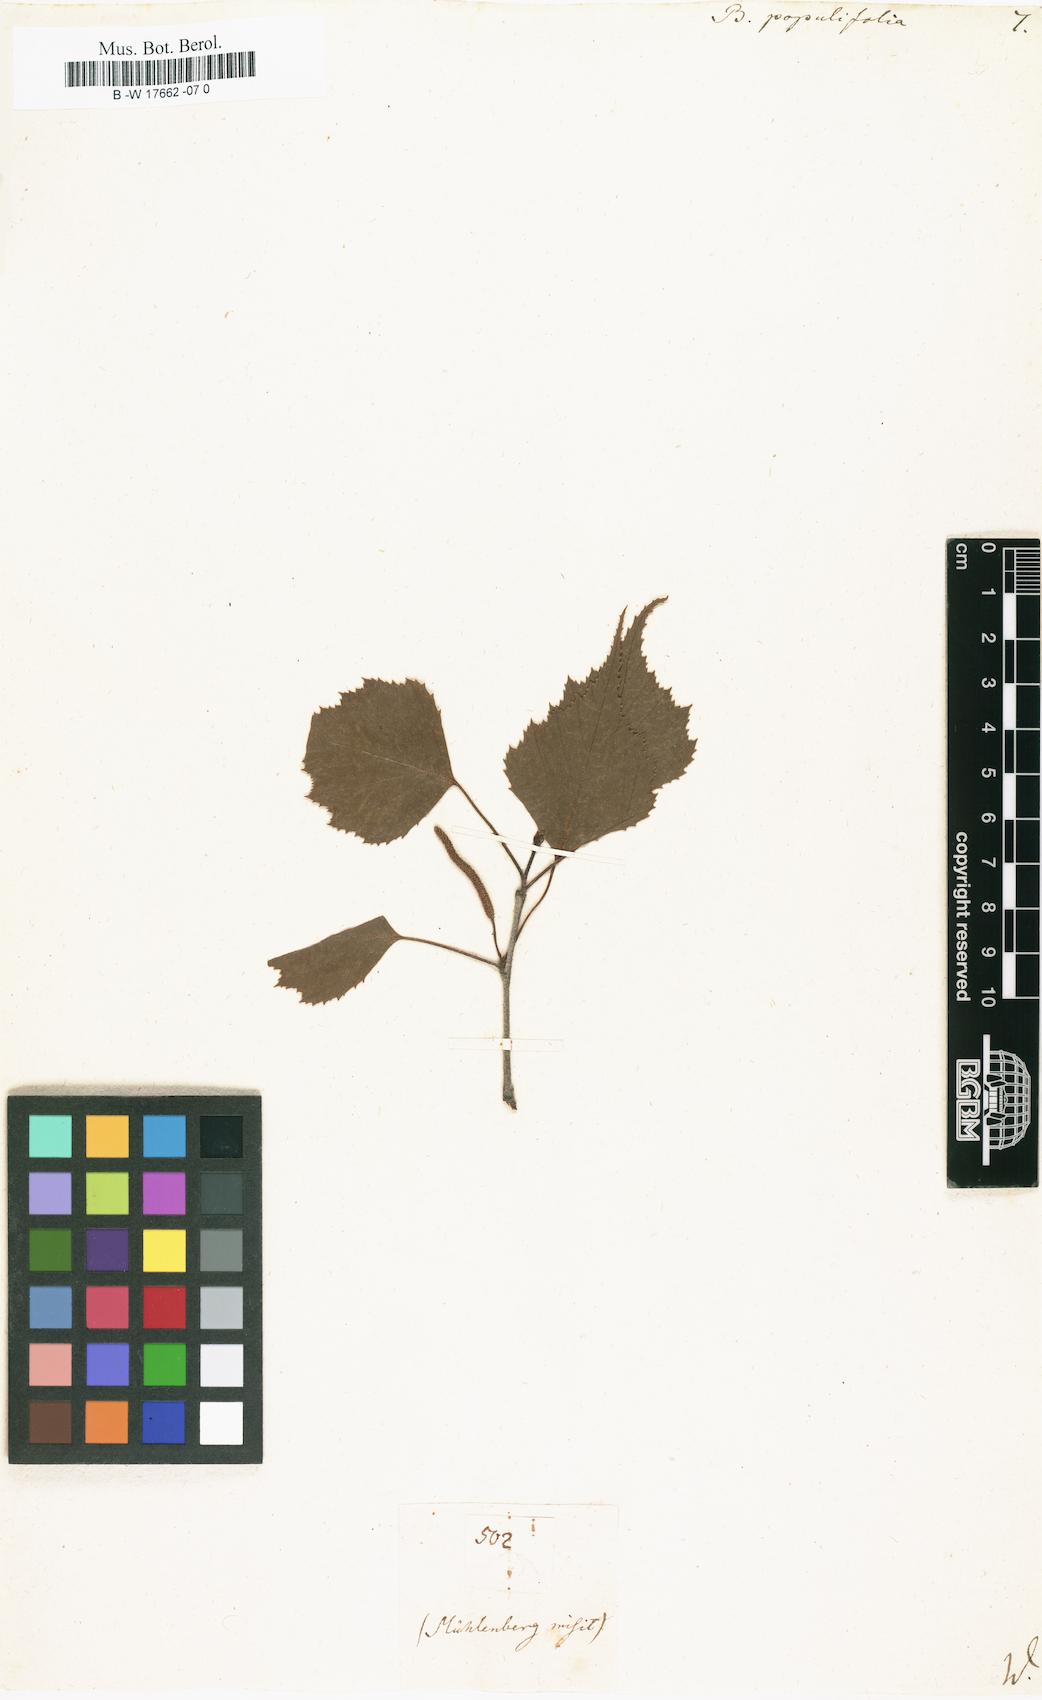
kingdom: Plantae
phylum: Tracheophyta
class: Magnoliopsida
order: Fagales
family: Betulaceae
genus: Betula
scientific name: Betula pubescens
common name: Downy birch
